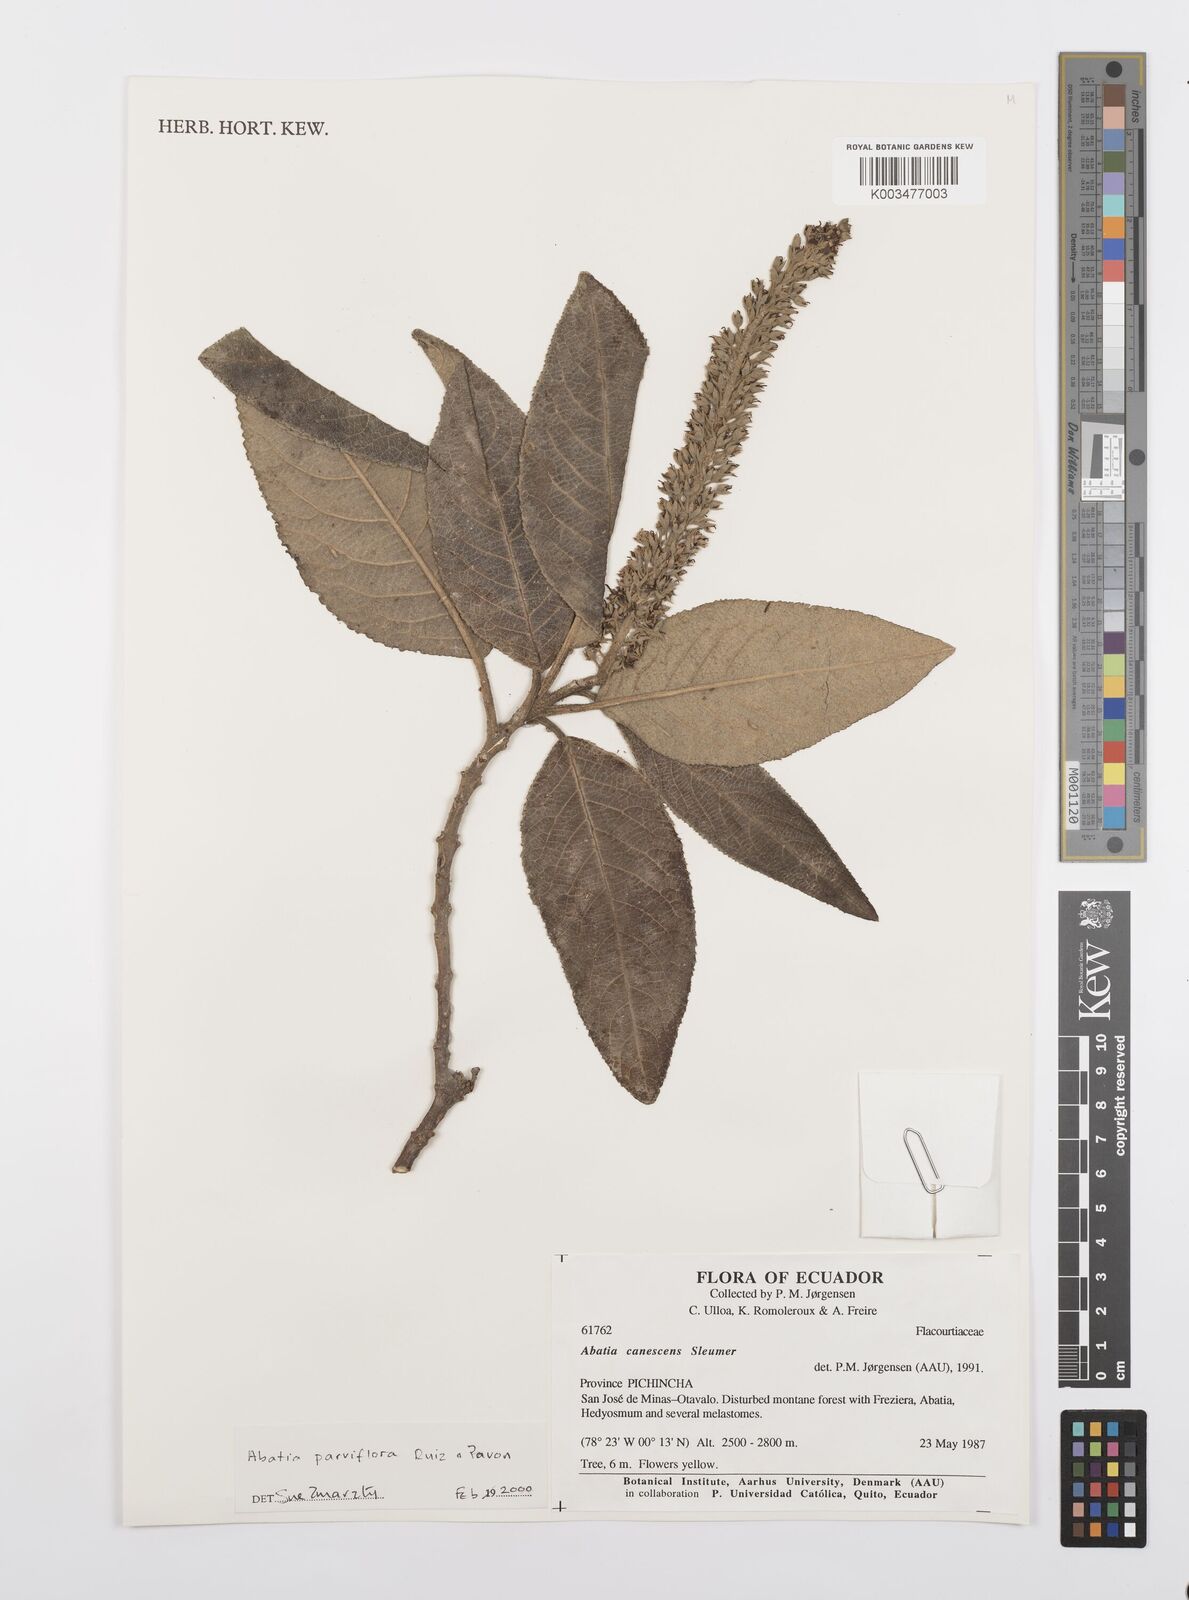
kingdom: Plantae
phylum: Tracheophyta
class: Magnoliopsida
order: Malpighiales
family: Salicaceae
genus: Abatia
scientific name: Abatia parviflora
